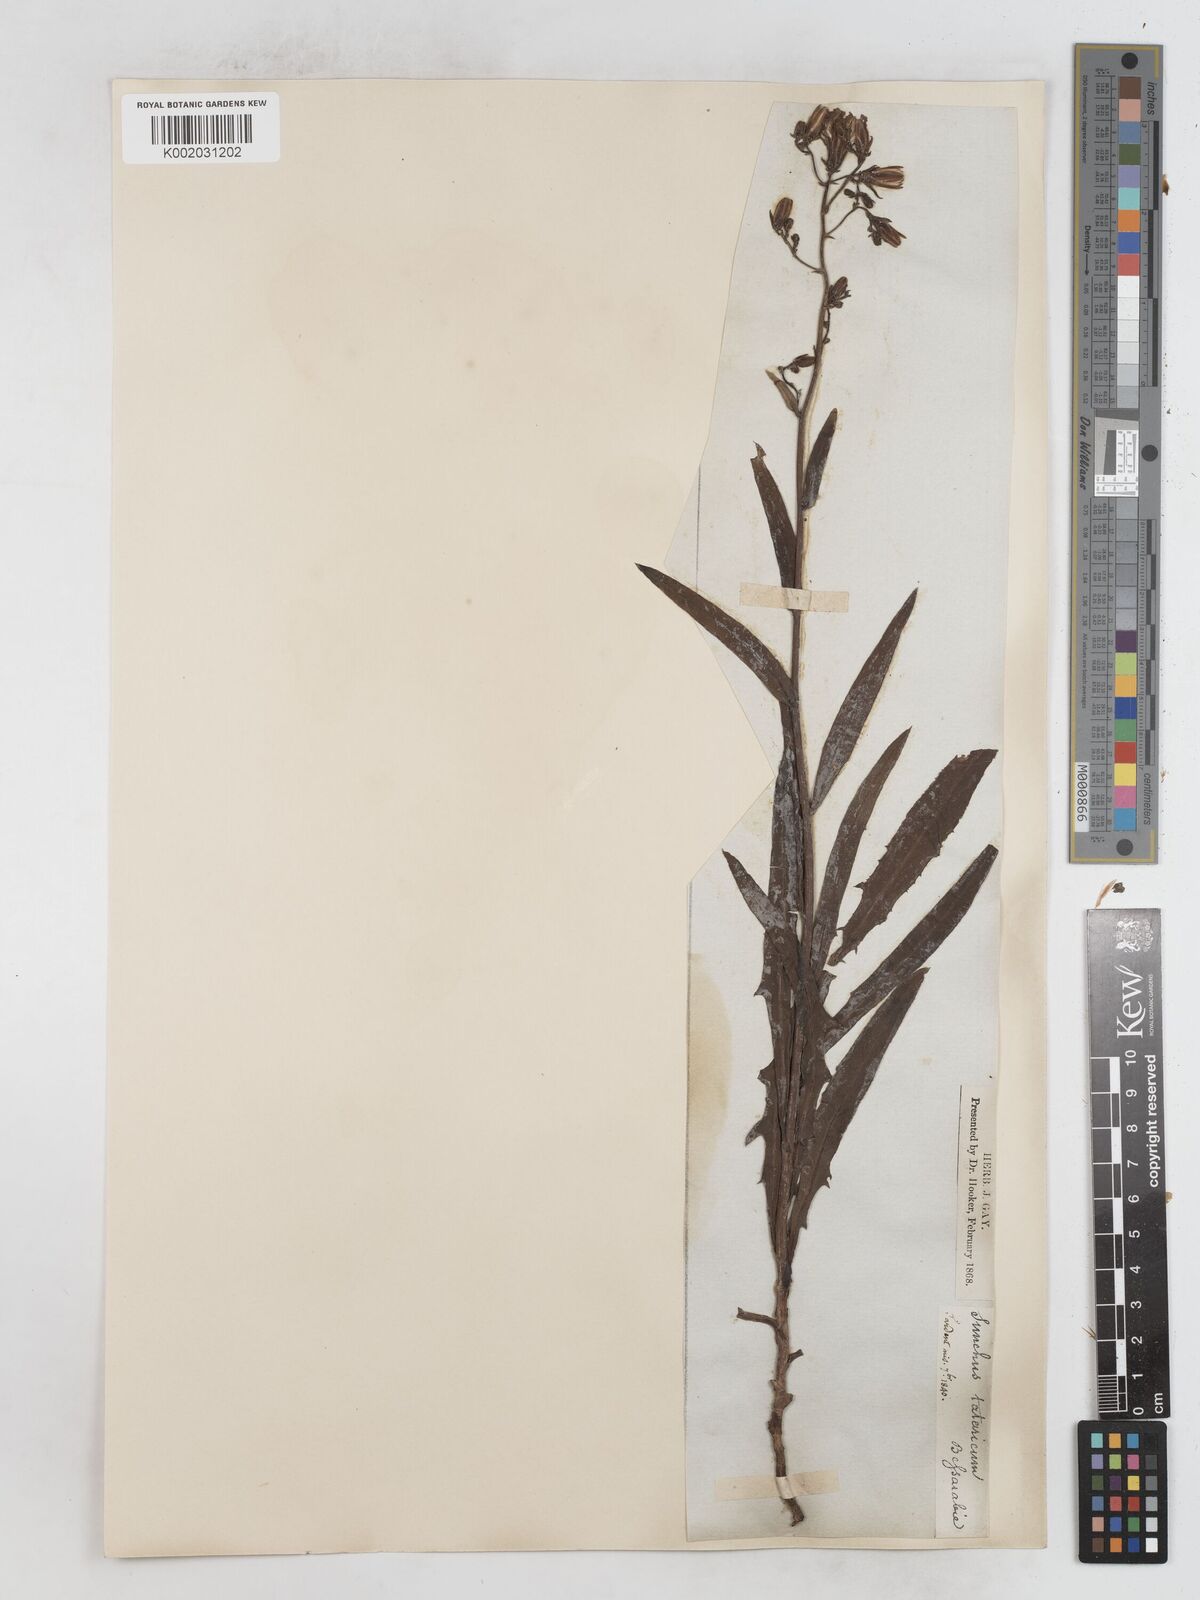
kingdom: Plantae
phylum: Tracheophyta
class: Magnoliopsida
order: Asterales
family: Asteraceae
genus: Lactuca
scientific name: Lactuca tatarica
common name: Blue lettuce
